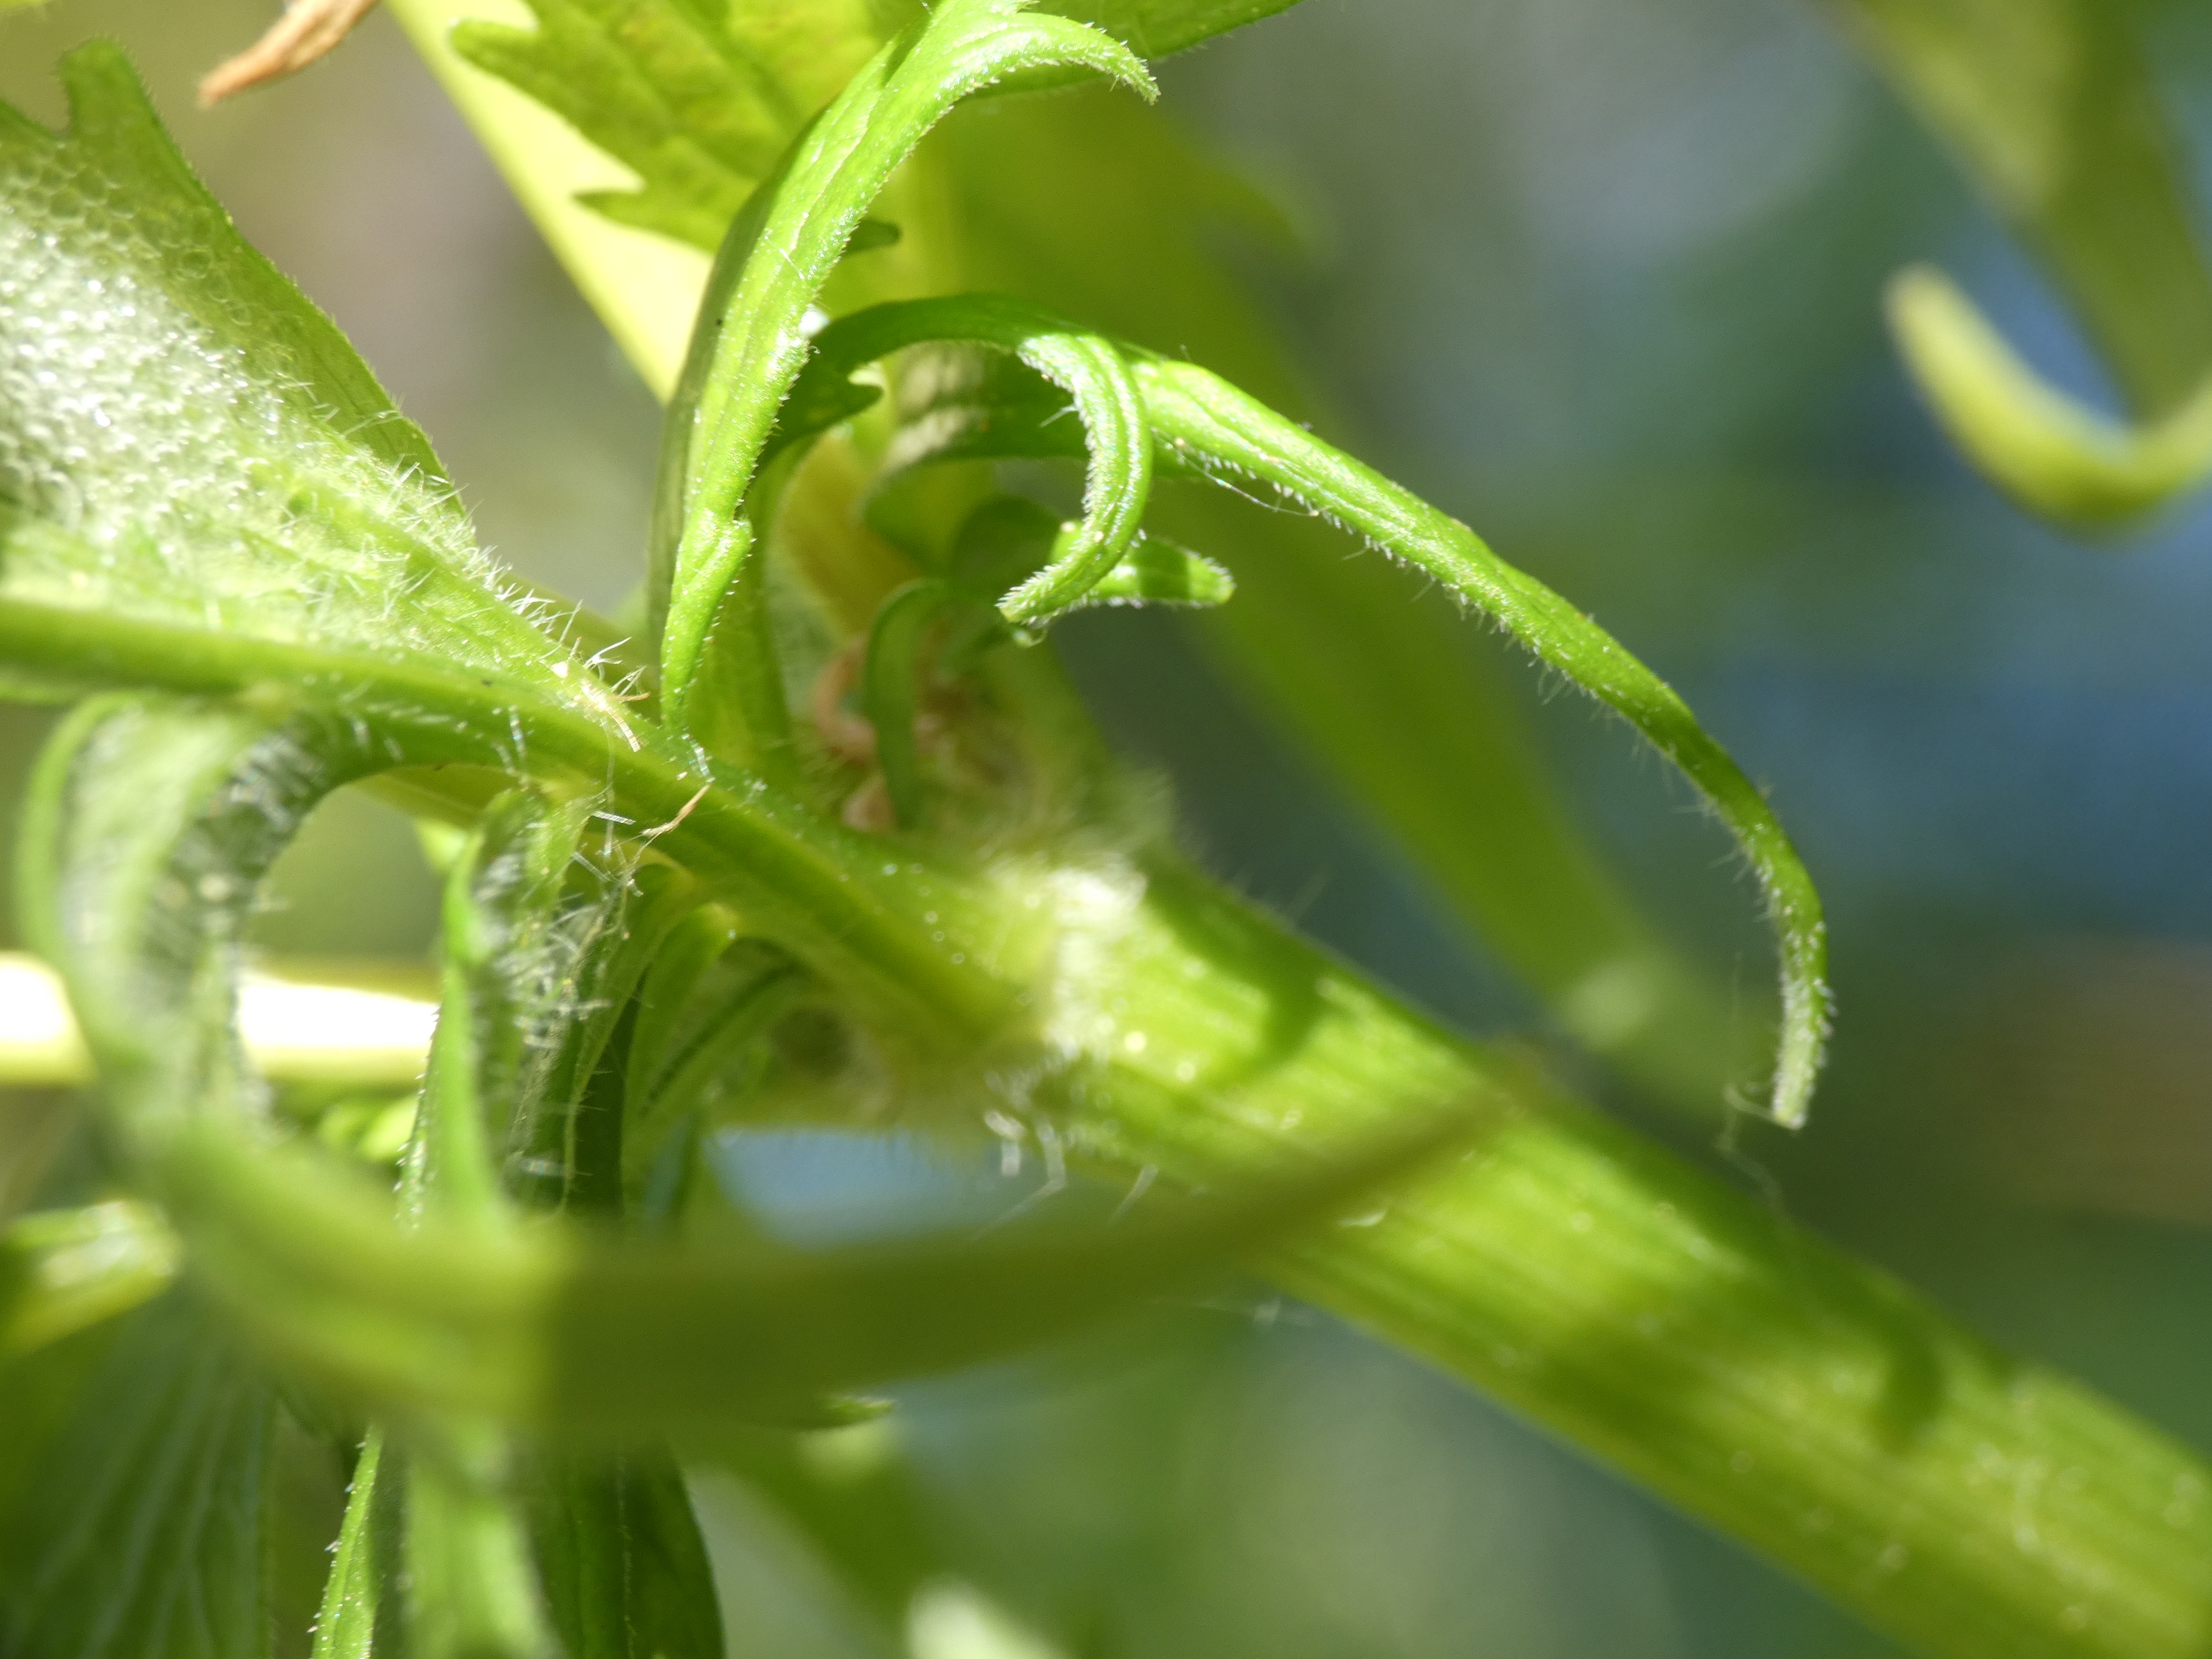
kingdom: Plantae
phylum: Tracheophyta
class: Magnoliopsida
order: Dipsacales
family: Caprifoliaceae
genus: Valeriana
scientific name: Valeriana sambucifolia
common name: Hyldebladet baldrian
